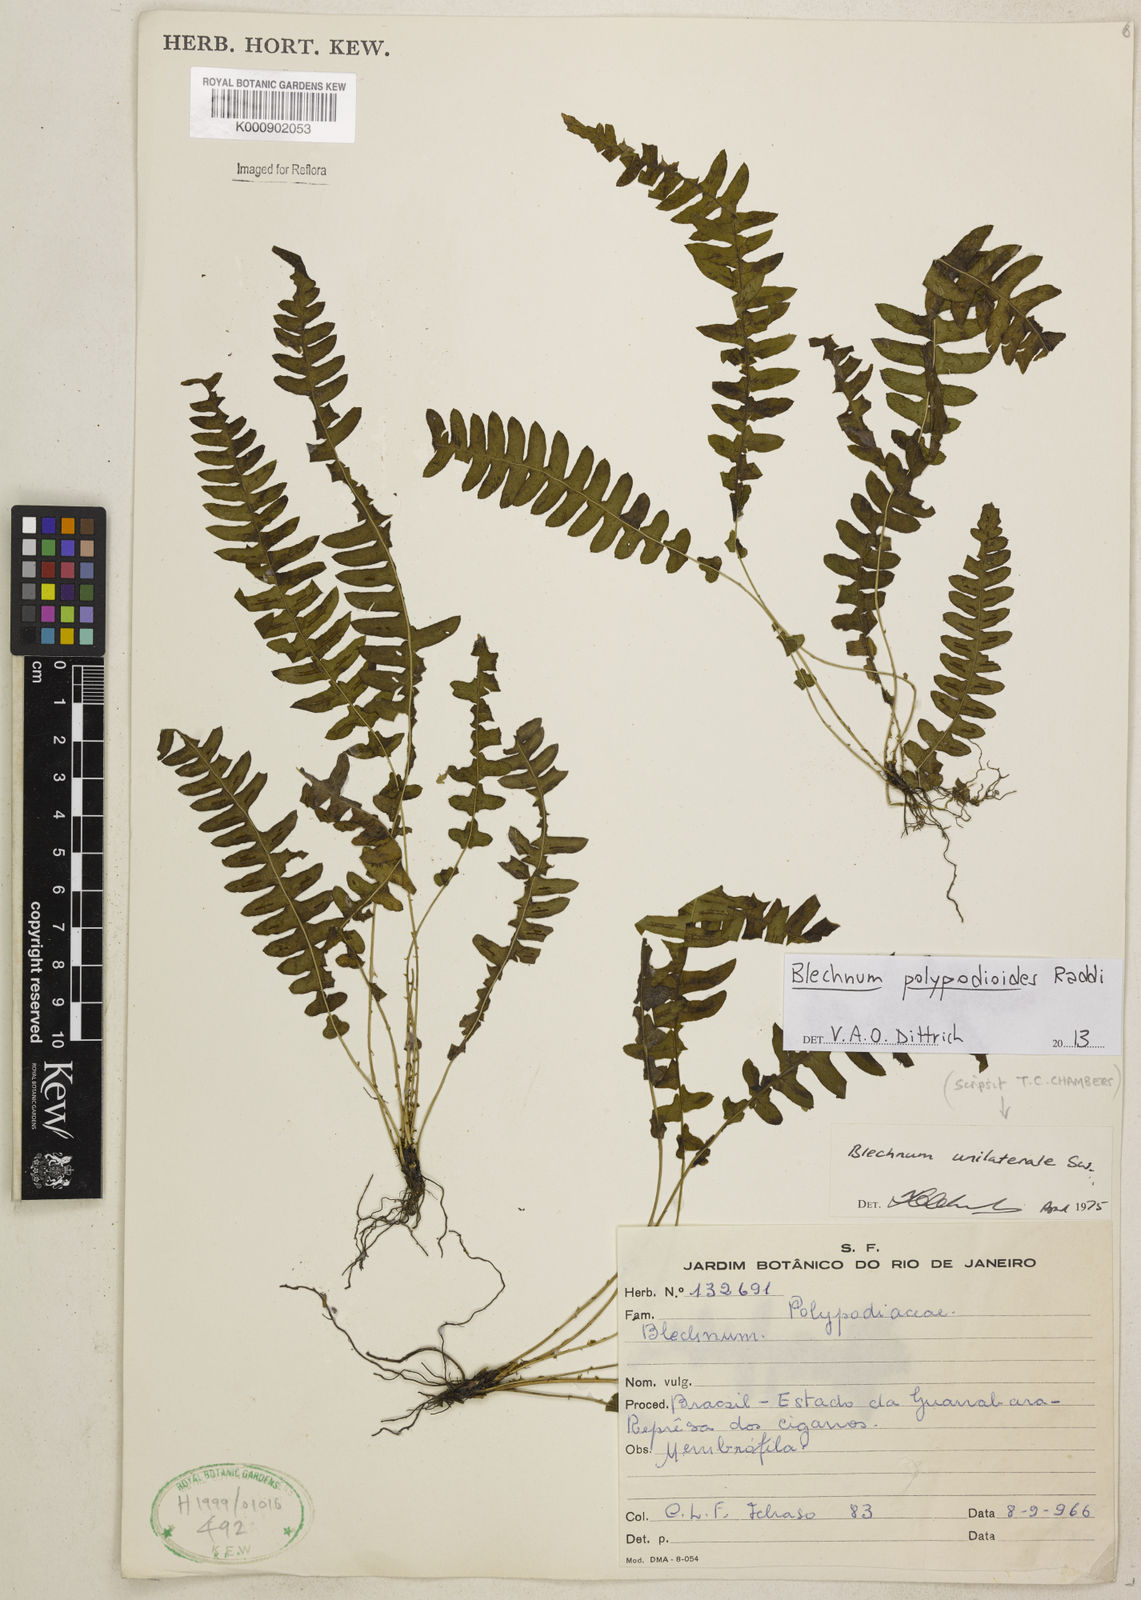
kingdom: Plantae
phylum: Tracheophyta
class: Polypodiopsida
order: Polypodiales
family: Blechnaceae
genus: Blechnum
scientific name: Blechnum polypodioides
